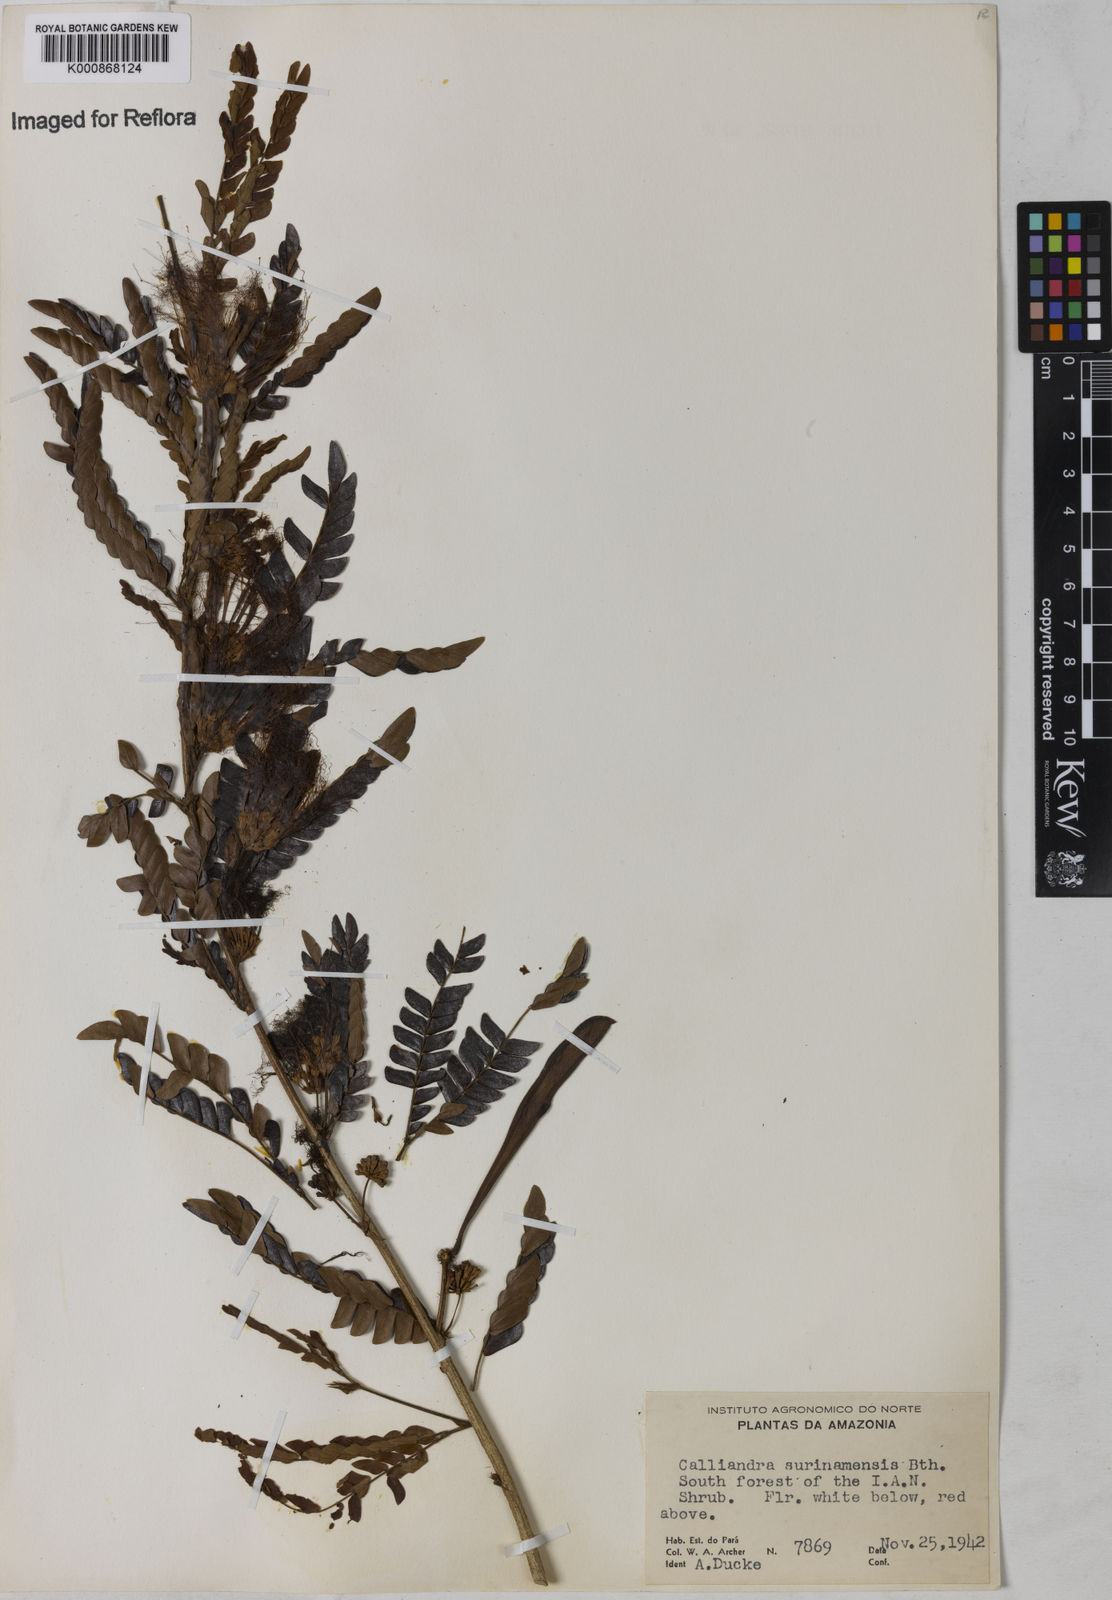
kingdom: Plantae
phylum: Tracheophyta
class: Magnoliopsida
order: Fabales
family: Fabaceae
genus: Calliandra
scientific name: Calliandra surinamensis
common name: Pink powder puff
